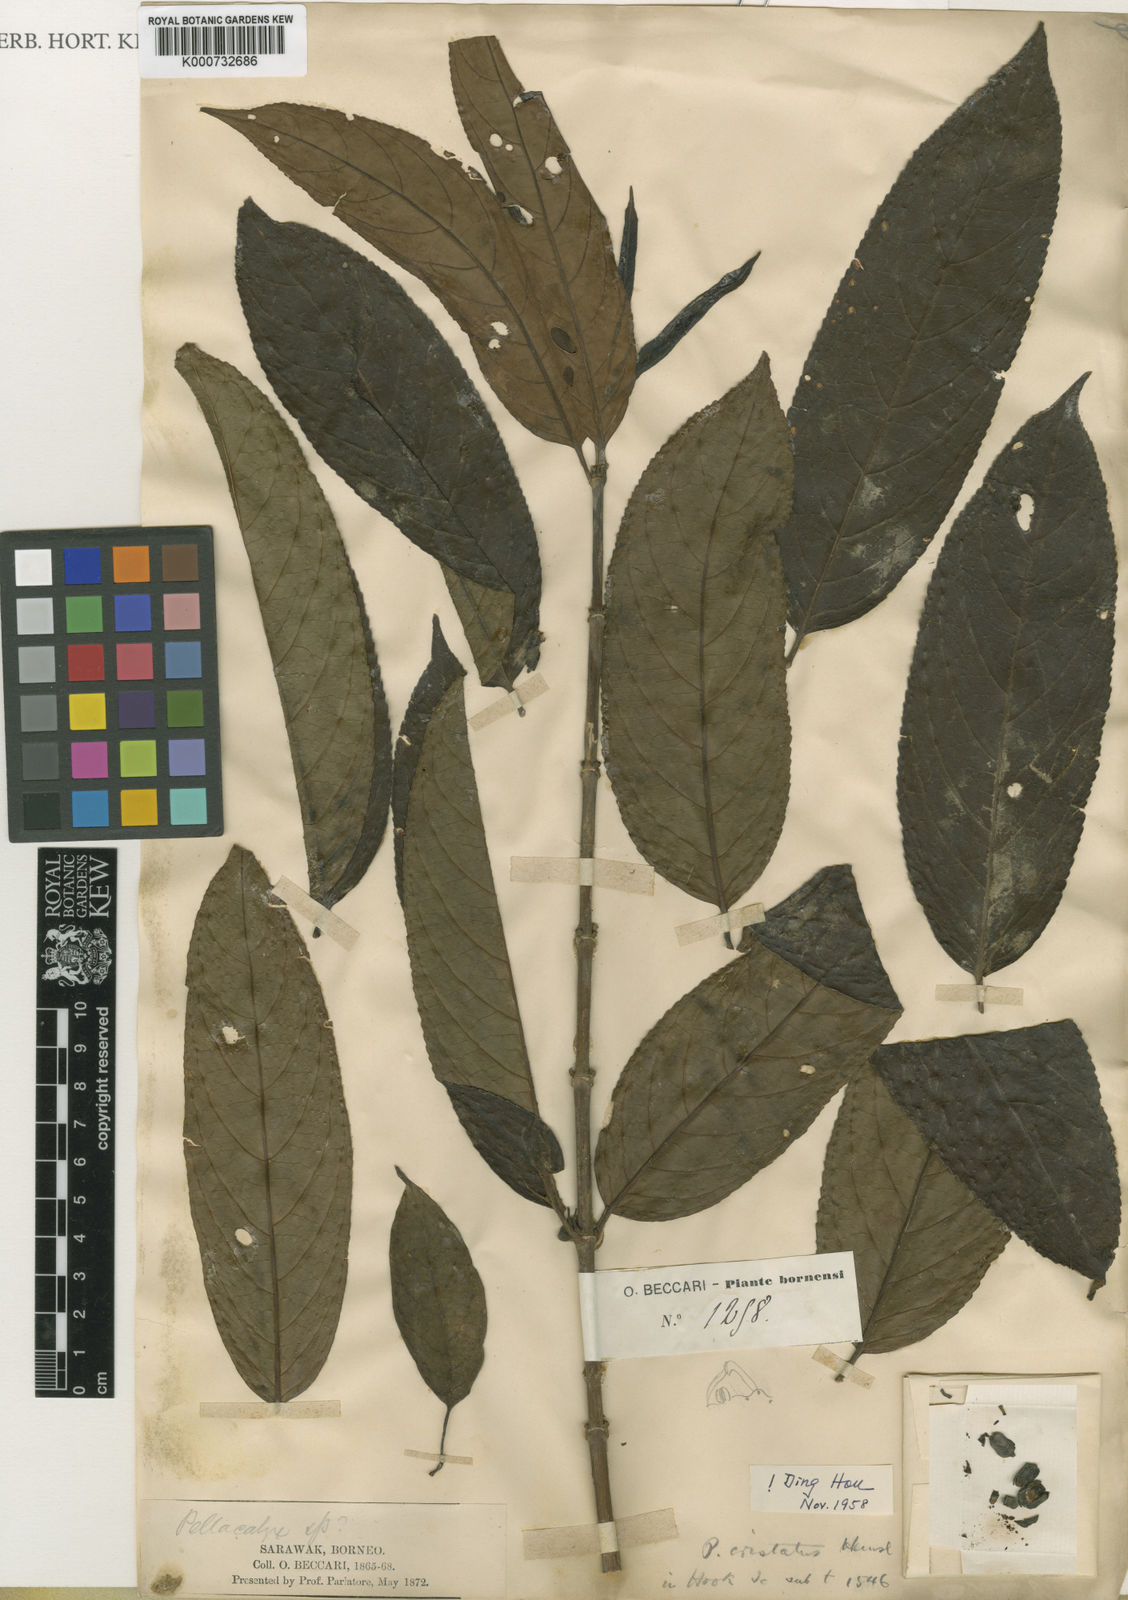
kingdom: Plantae
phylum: Tracheophyta
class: Magnoliopsida
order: Malpighiales
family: Rhizophoraceae
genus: Pellacalyx
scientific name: Pellacalyx cristatus
